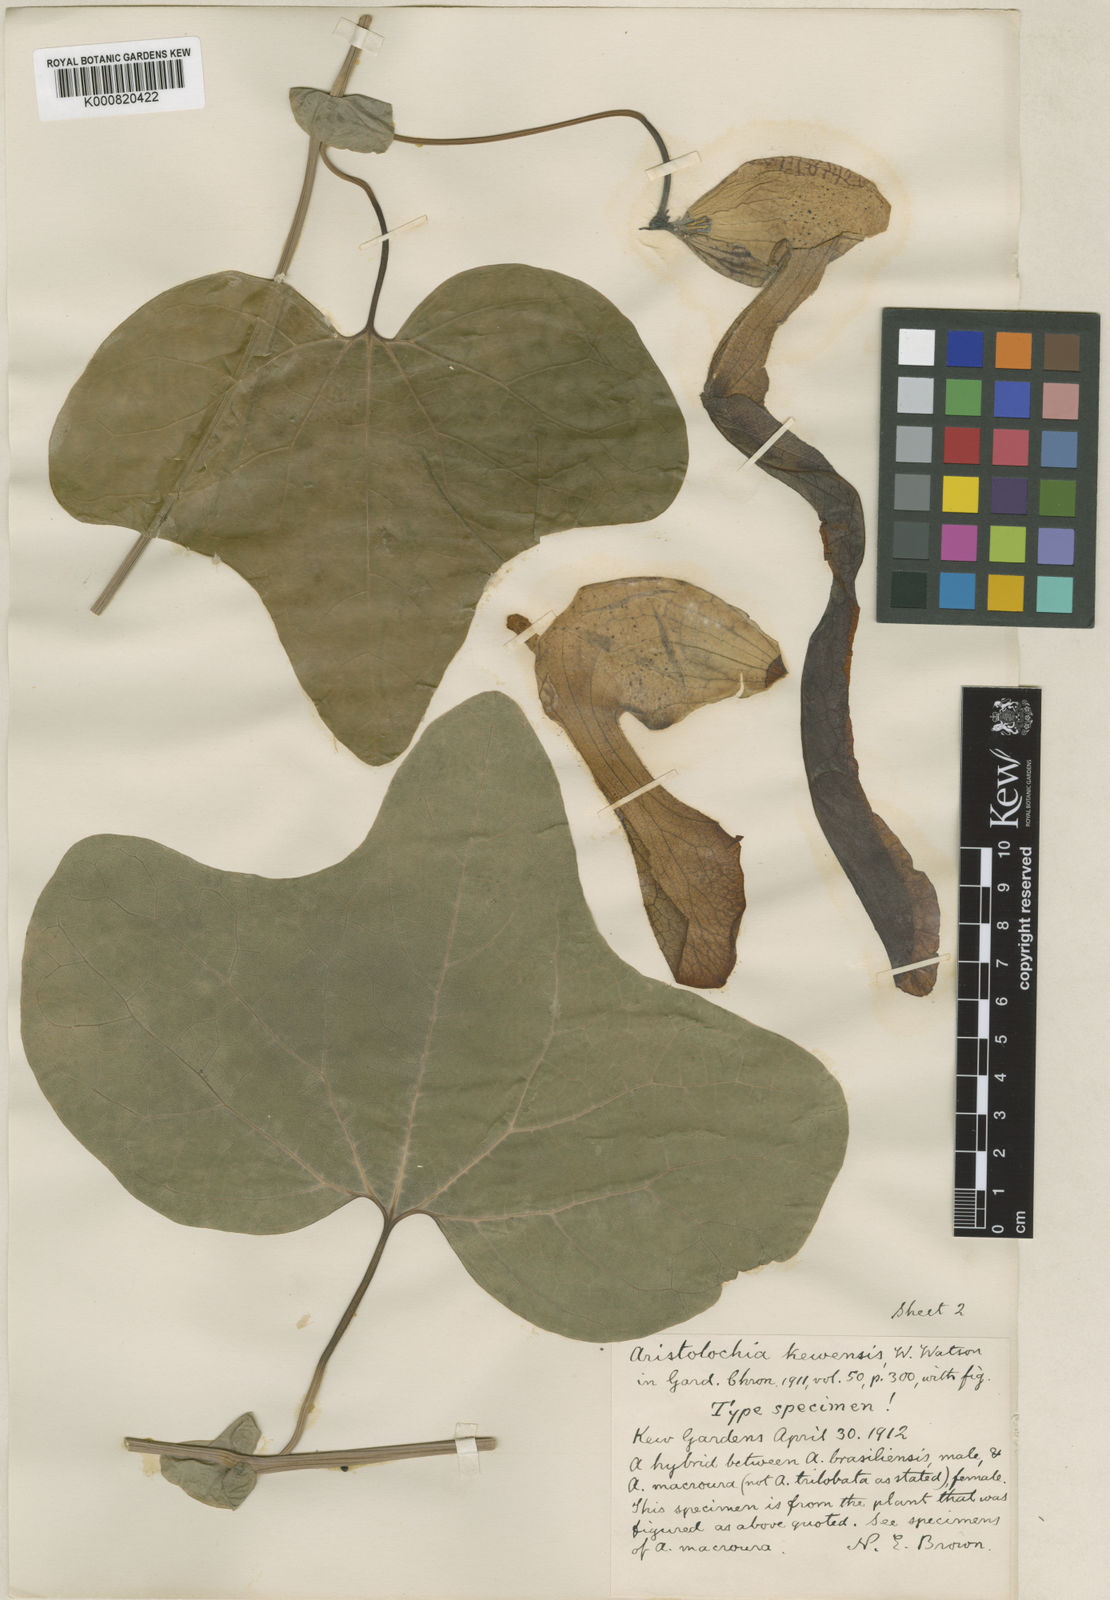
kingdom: Plantae
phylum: Tracheophyta
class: Magnoliopsida
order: Piperales
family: Aristolochiaceae
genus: Aristolochia
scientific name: Aristolochia
